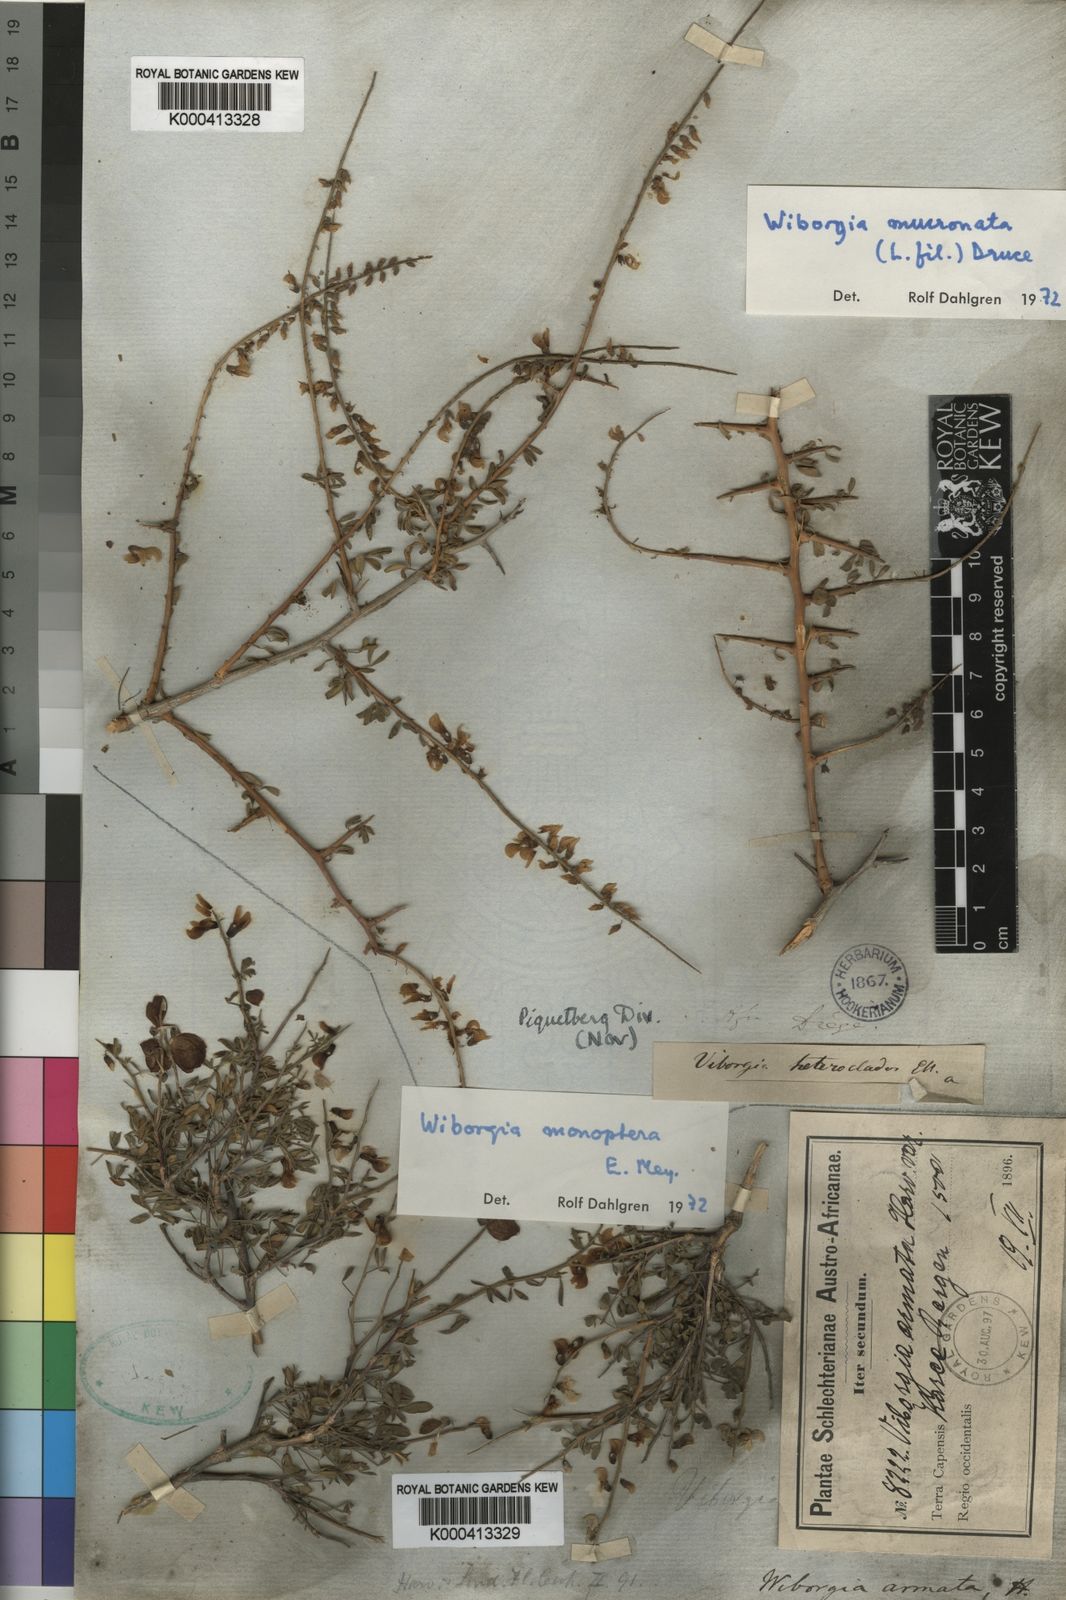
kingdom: Plantae
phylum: Tracheophyta
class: Magnoliopsida
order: Fabales
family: Fabaceae
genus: Wiborgia
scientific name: Wiborgia mucronata
